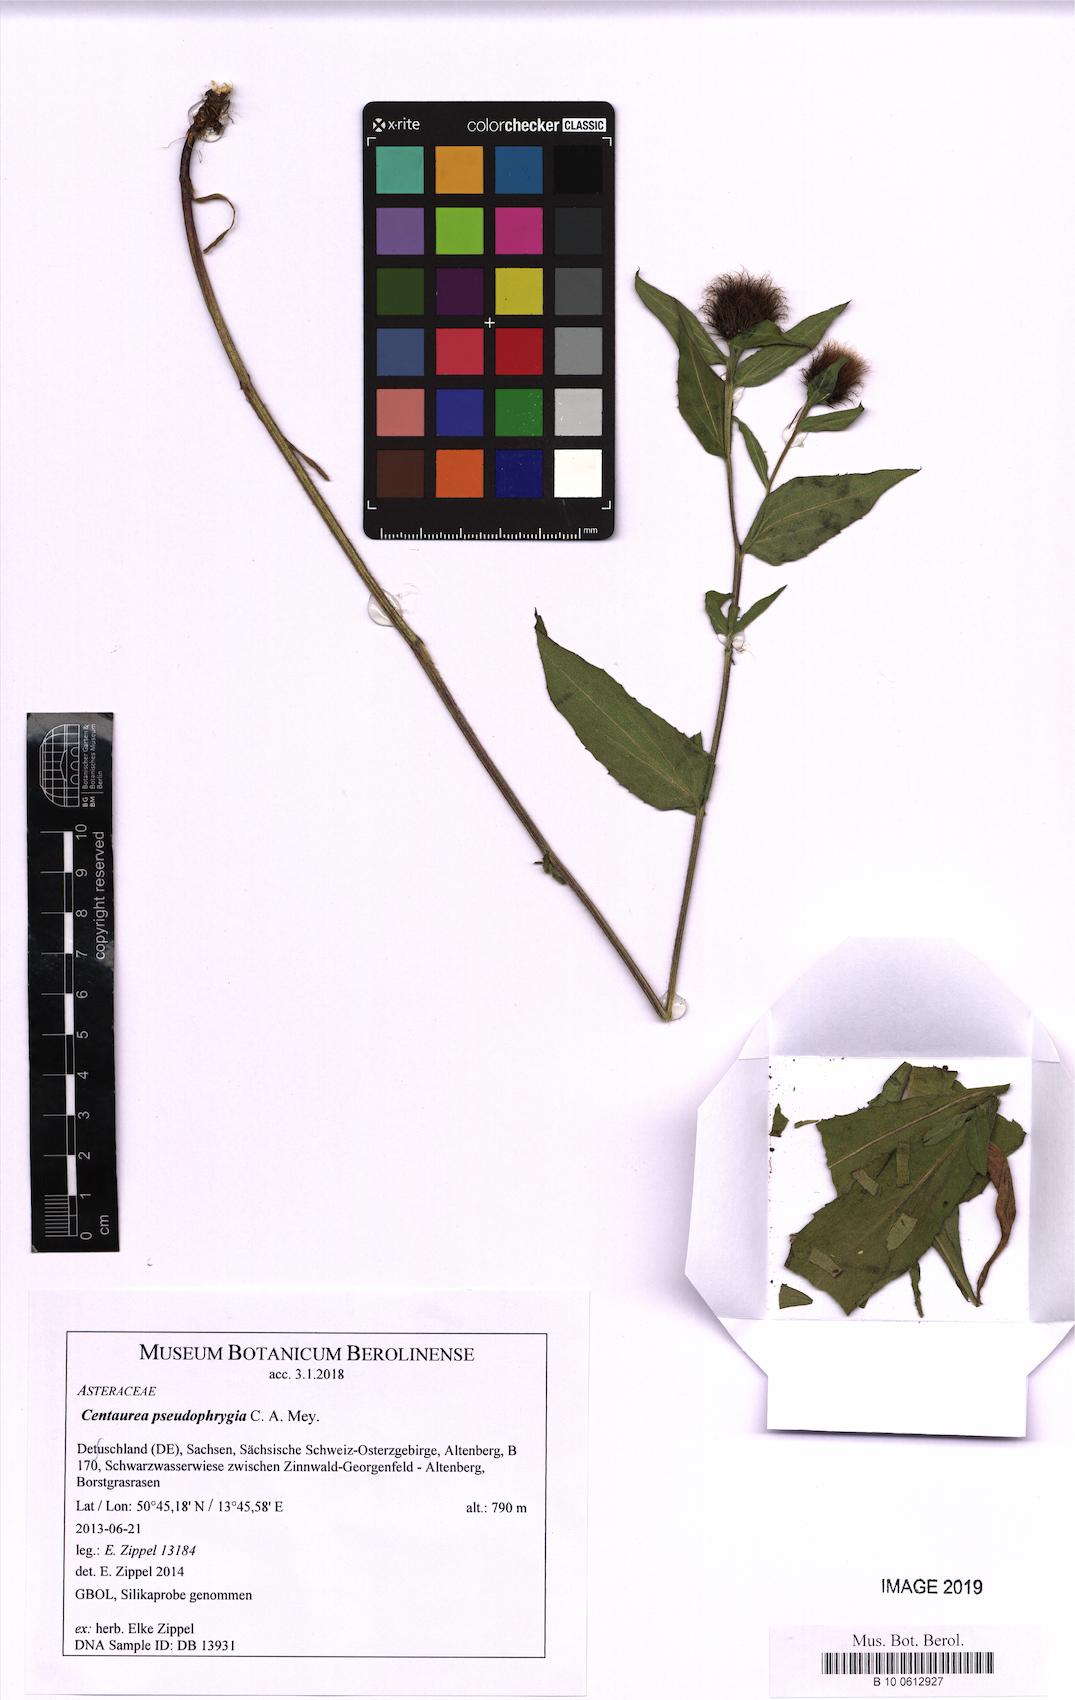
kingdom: Plantae
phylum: Tracheophyta
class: Magnoliopsida
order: Asterales
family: Asteraceae
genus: Centaurea
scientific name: Centaurea pseudophrygia
